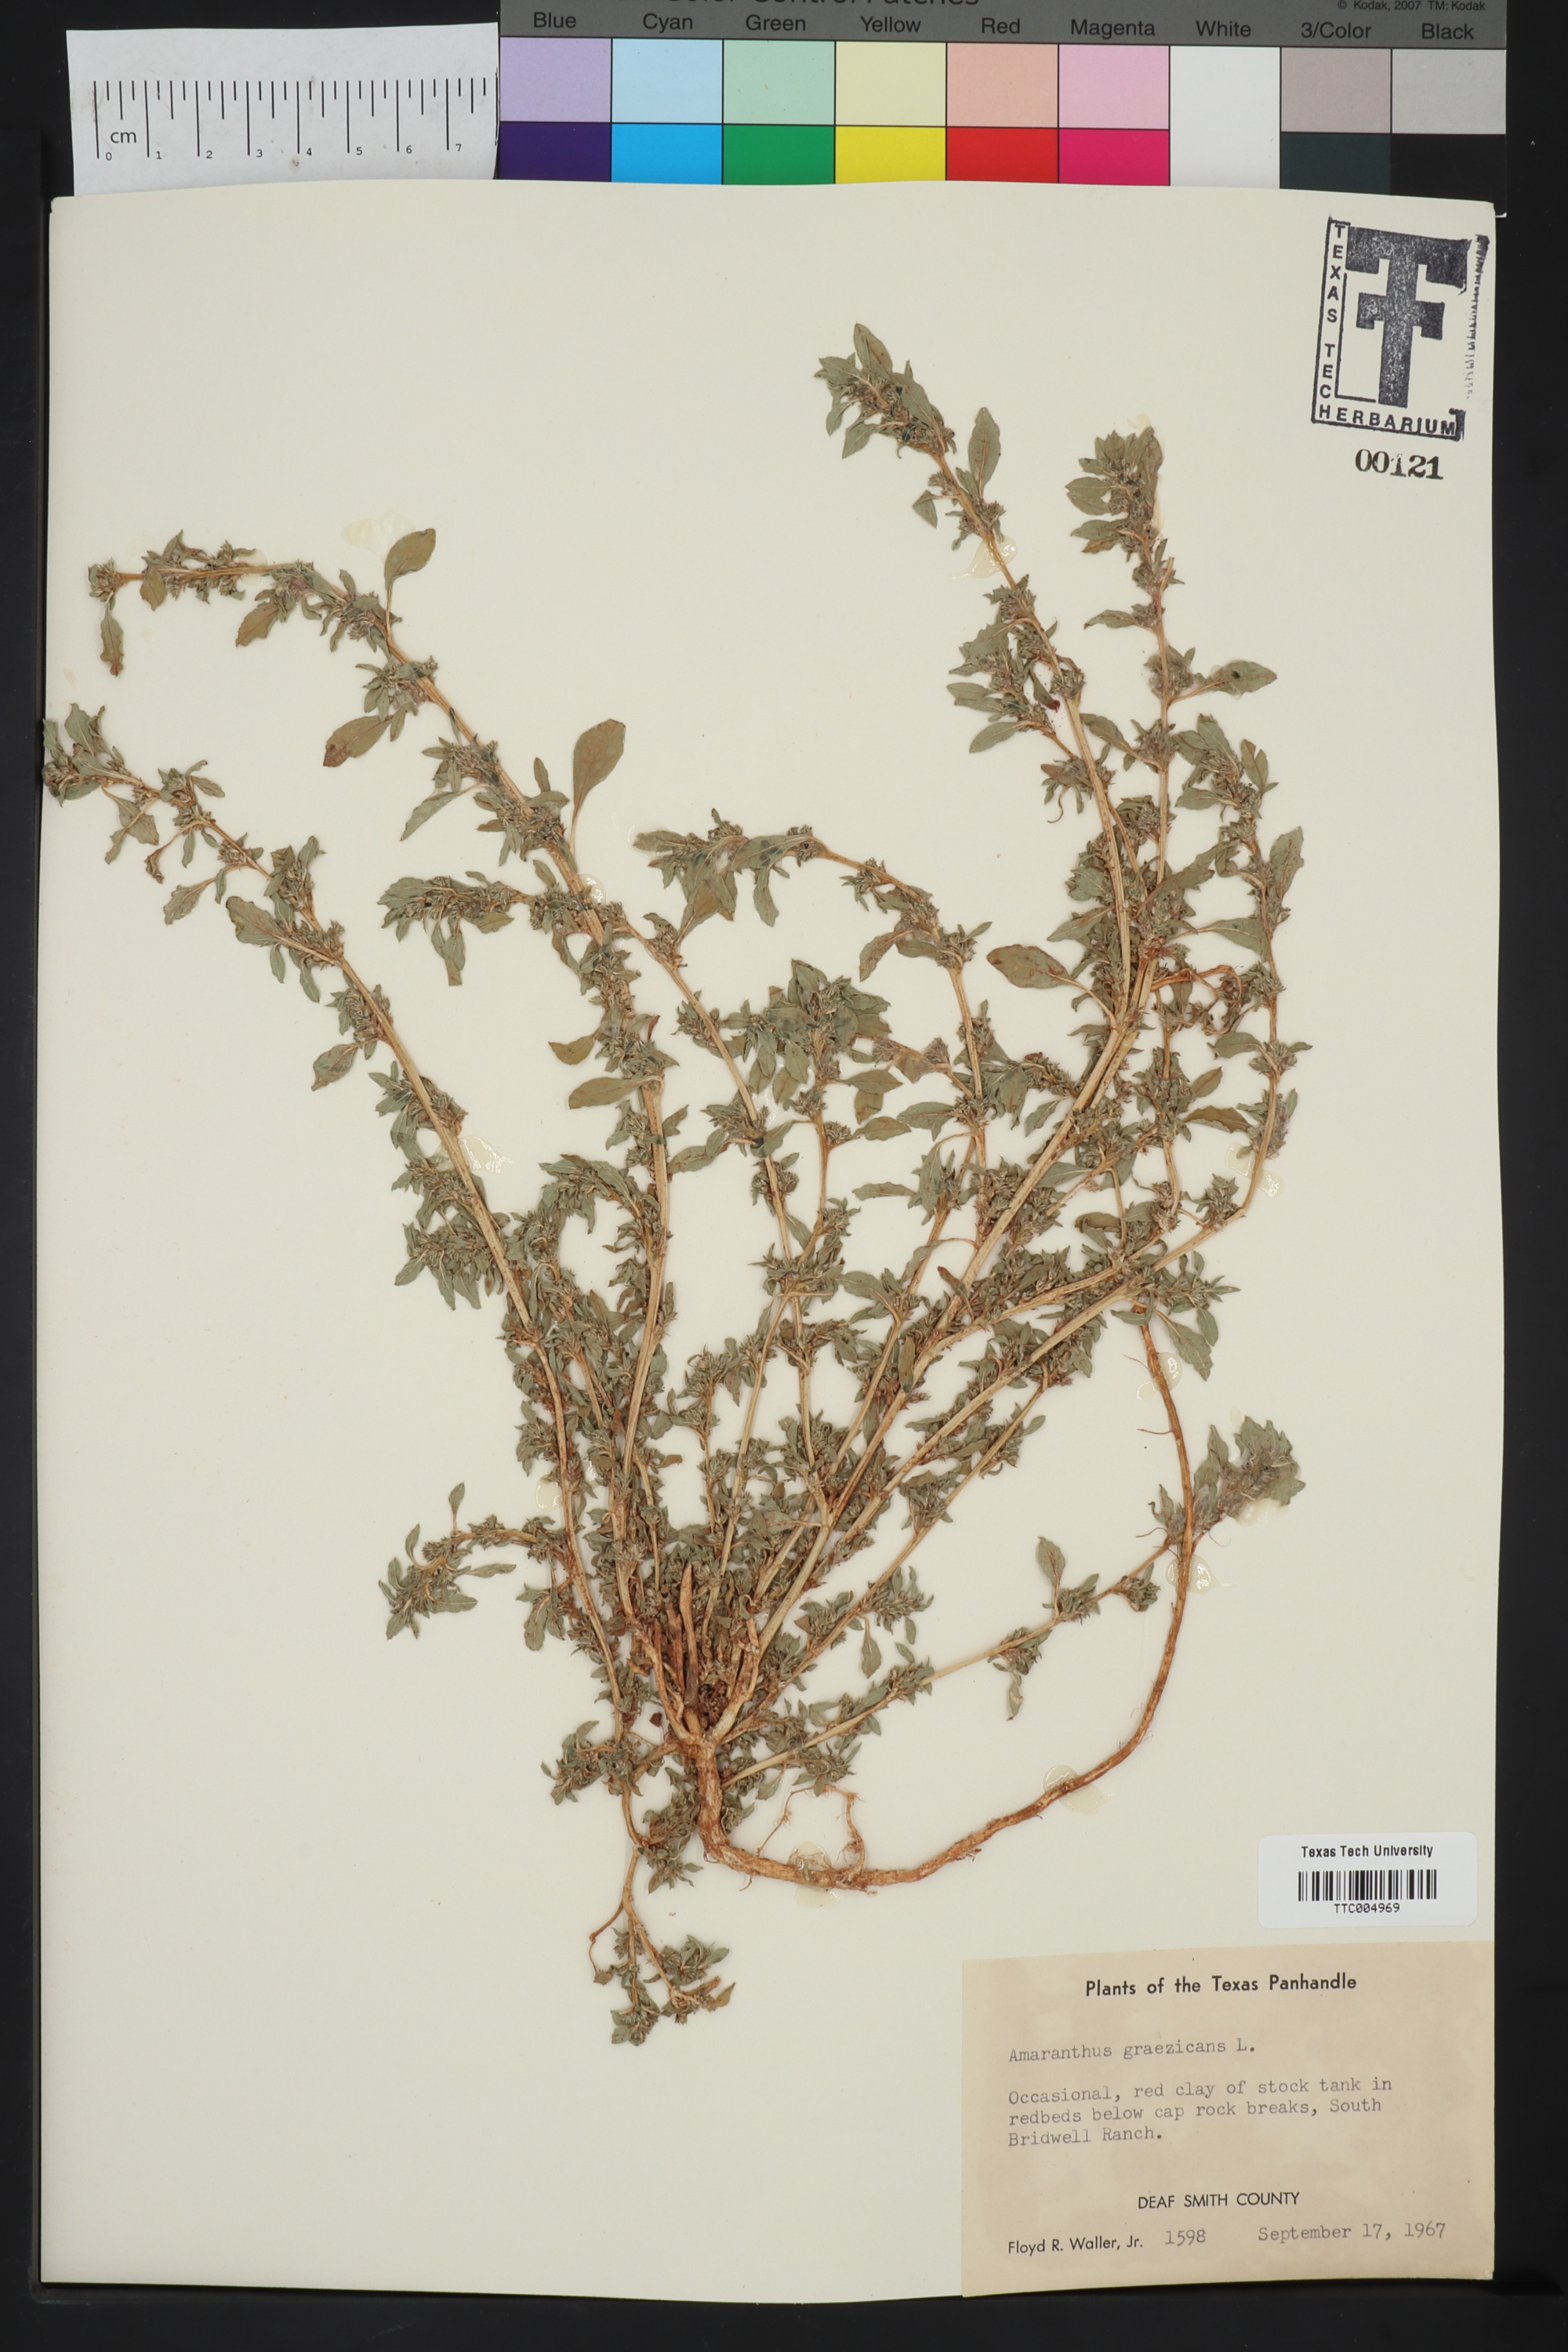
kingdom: Plantae
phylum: Tracheophyta
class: Magnoliopsida
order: Caryophyllales
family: Amaranthaceae
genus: Amaranthus
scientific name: Amaranthus graecizans
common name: Mediterranean amaranth
